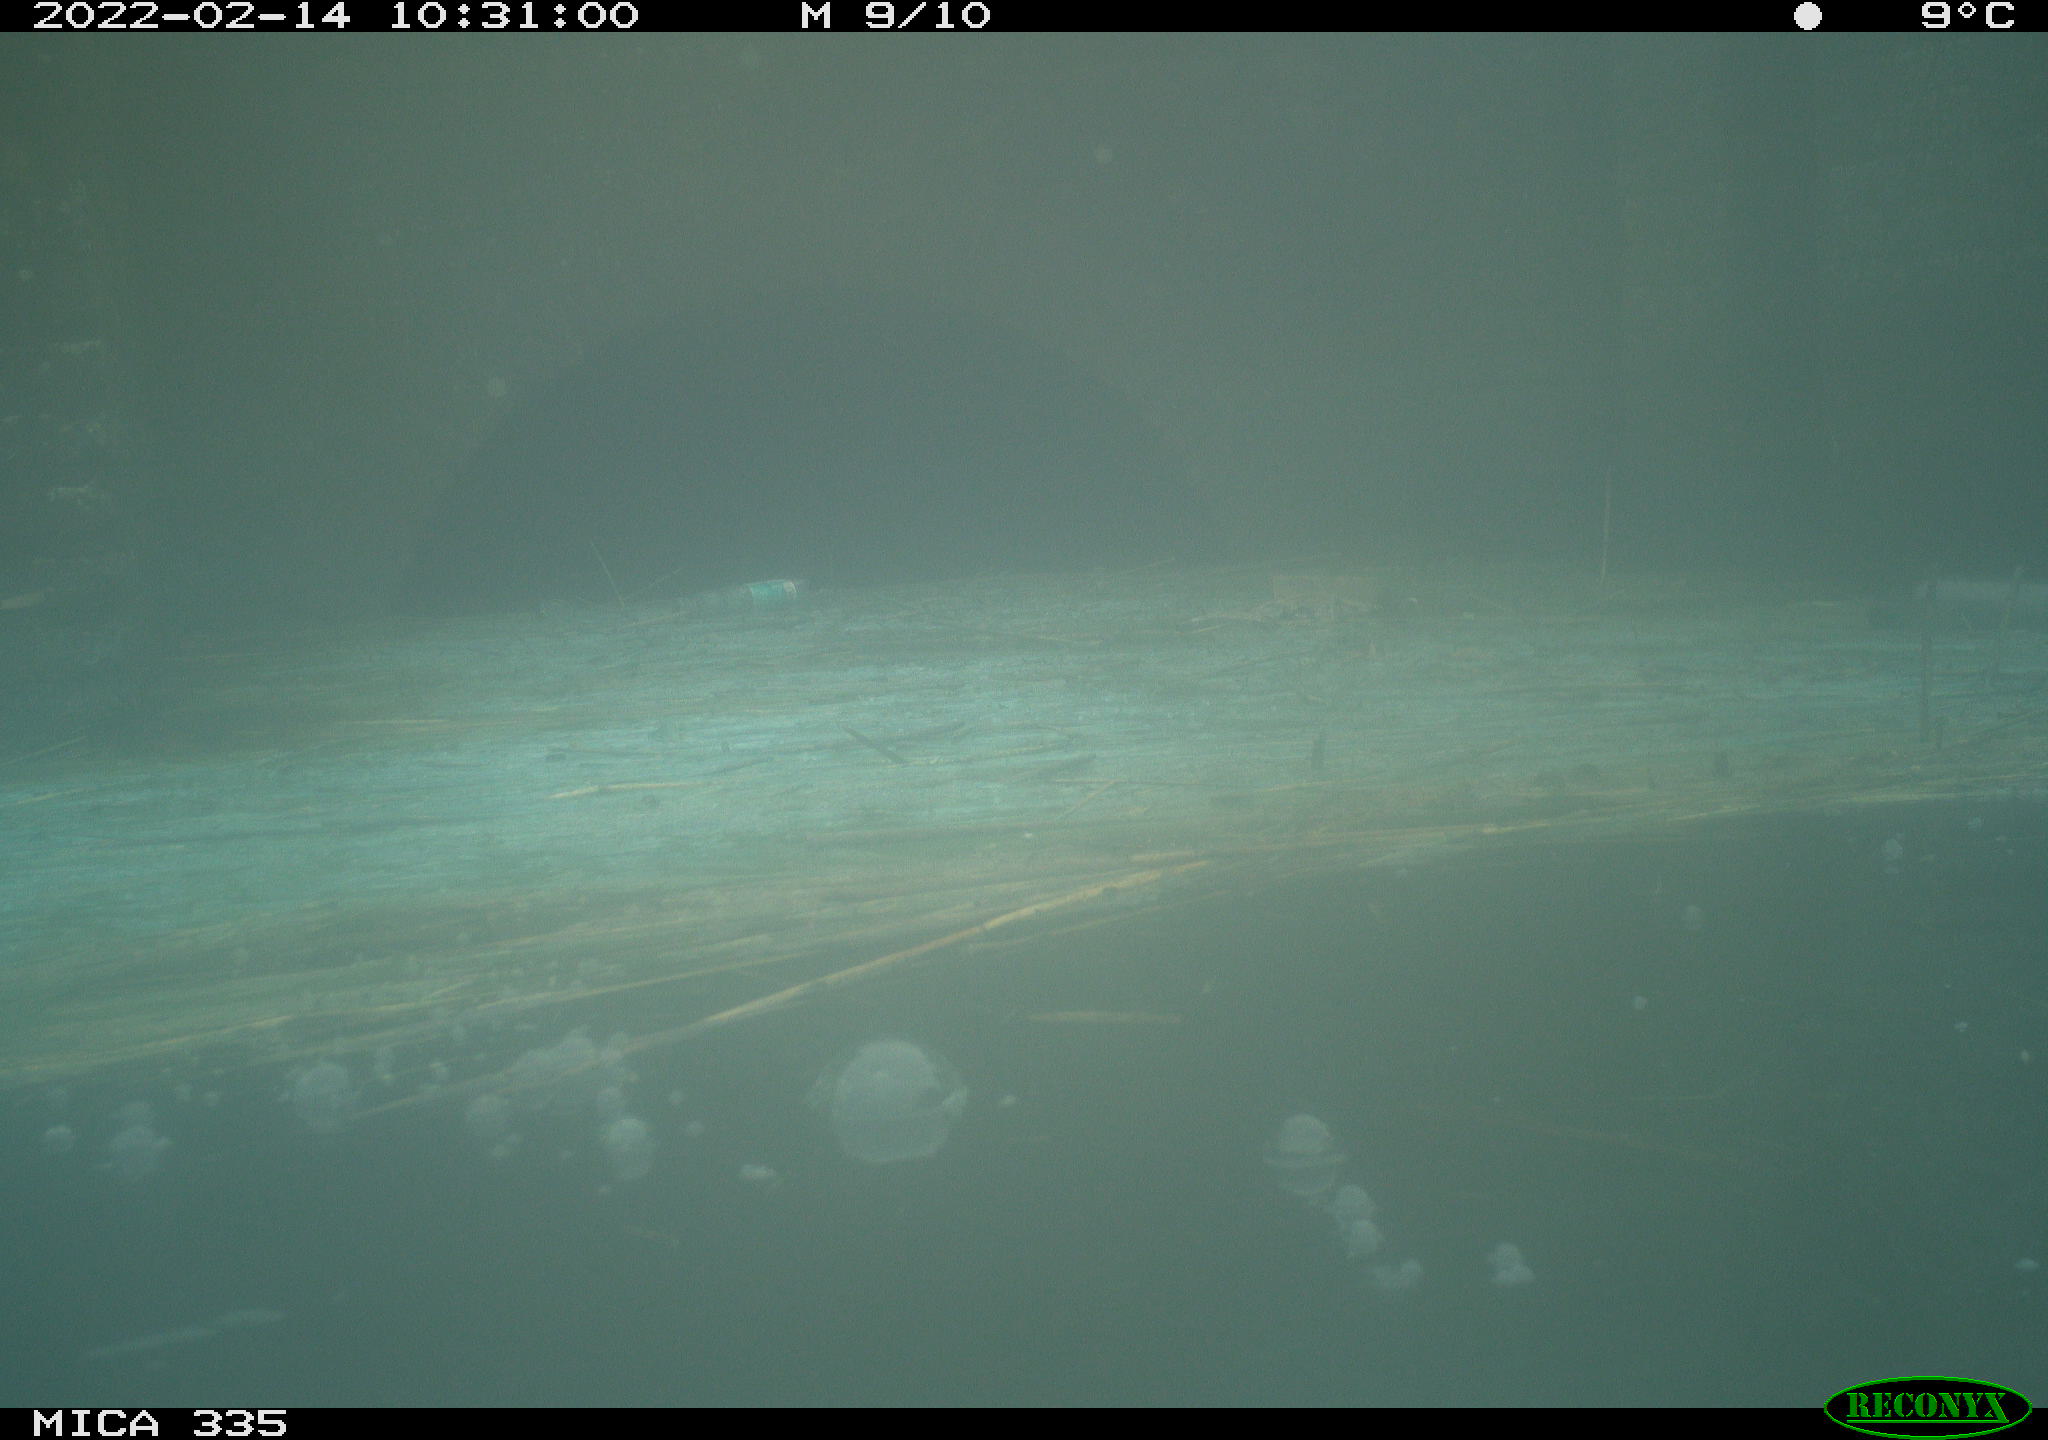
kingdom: Animalia
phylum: Chordata
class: Aves
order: Suliformes
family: Phalacrocoracidae
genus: Phalacrocorax
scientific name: Phalacrocorax carbo
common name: Great cormorant
